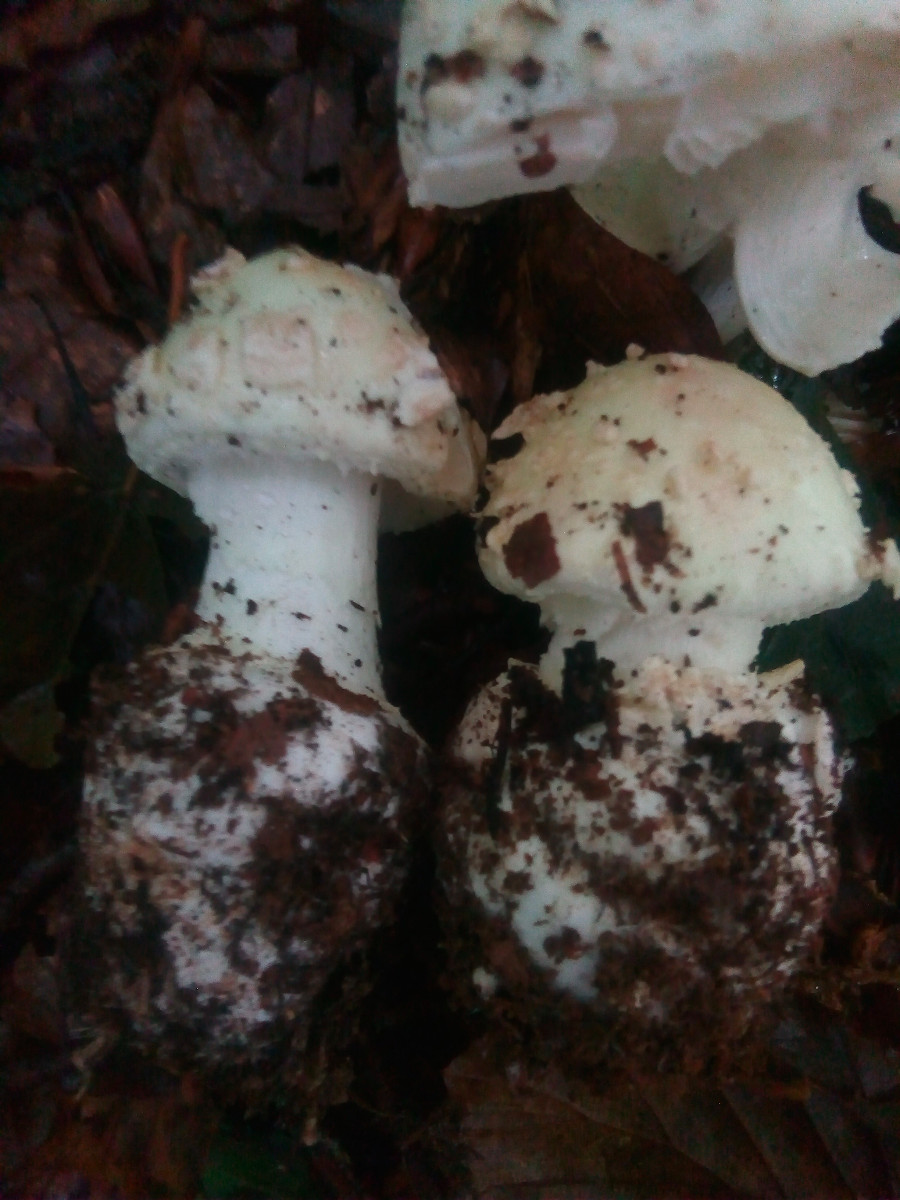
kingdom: Fungi
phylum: Basidiomycota
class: Agaricomycetes
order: Agaricales
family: Amanitaceae
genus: Amanita
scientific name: Amanita citrina
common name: kugleknoldet fluesvamp
